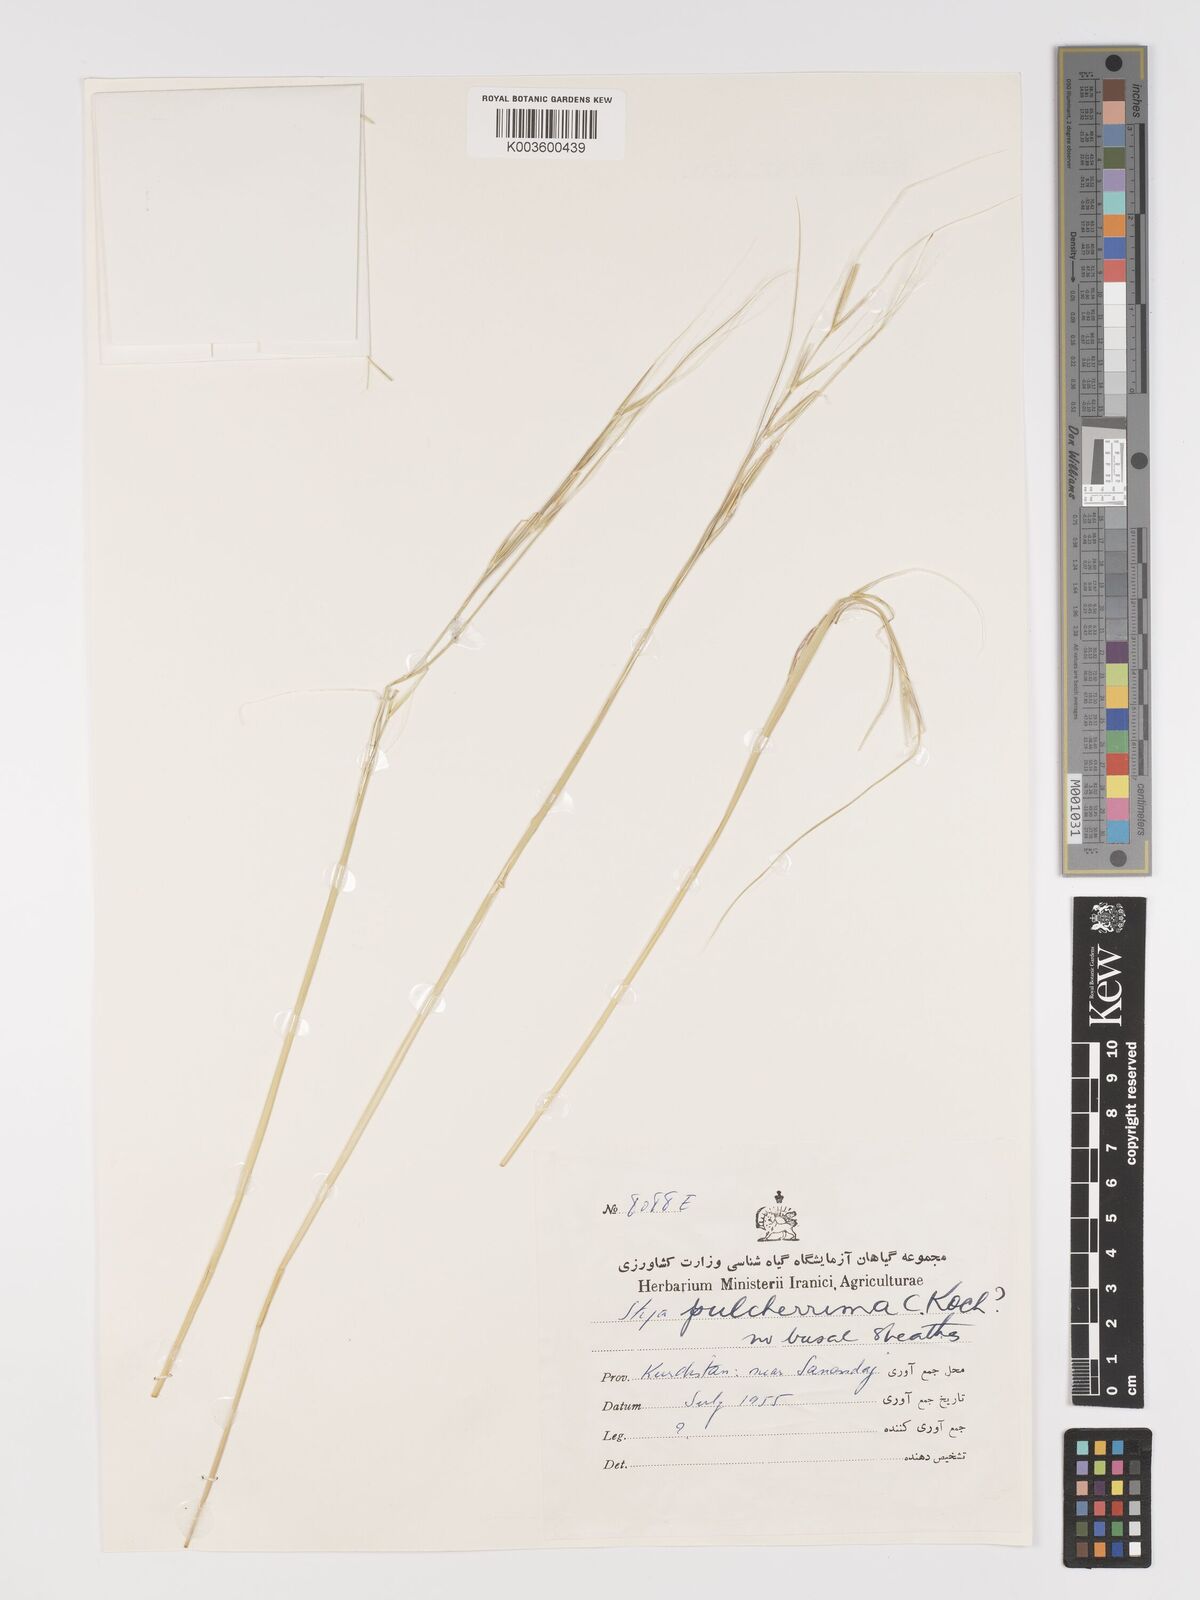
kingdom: Plantae
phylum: Tracheophyta
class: Liliopsida
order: Poales
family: Poaceae
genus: Stipa
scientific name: Stipa pulcherrima
